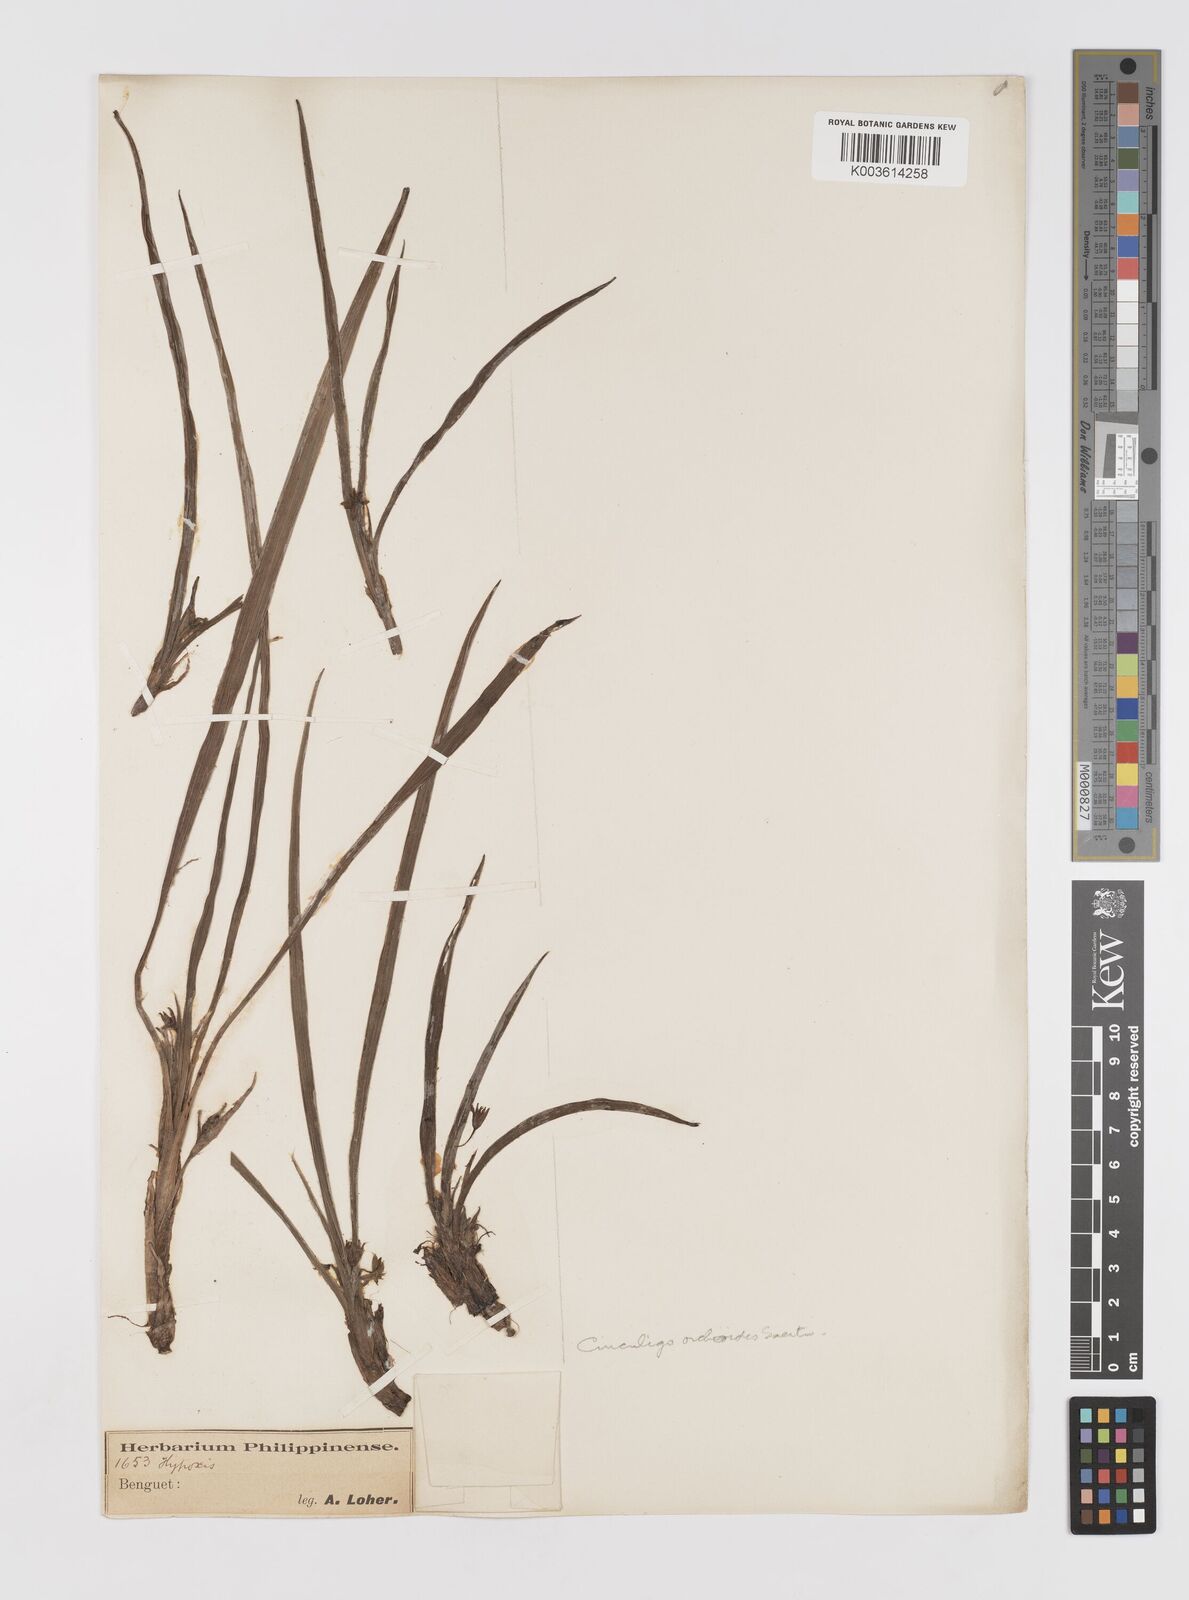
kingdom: Plantae
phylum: Tracheophyta
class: Liliopsida
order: Asparagales
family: Hypoxidaceae
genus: Curculigo
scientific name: Curculigo orchioides
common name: Golden eye-grass
